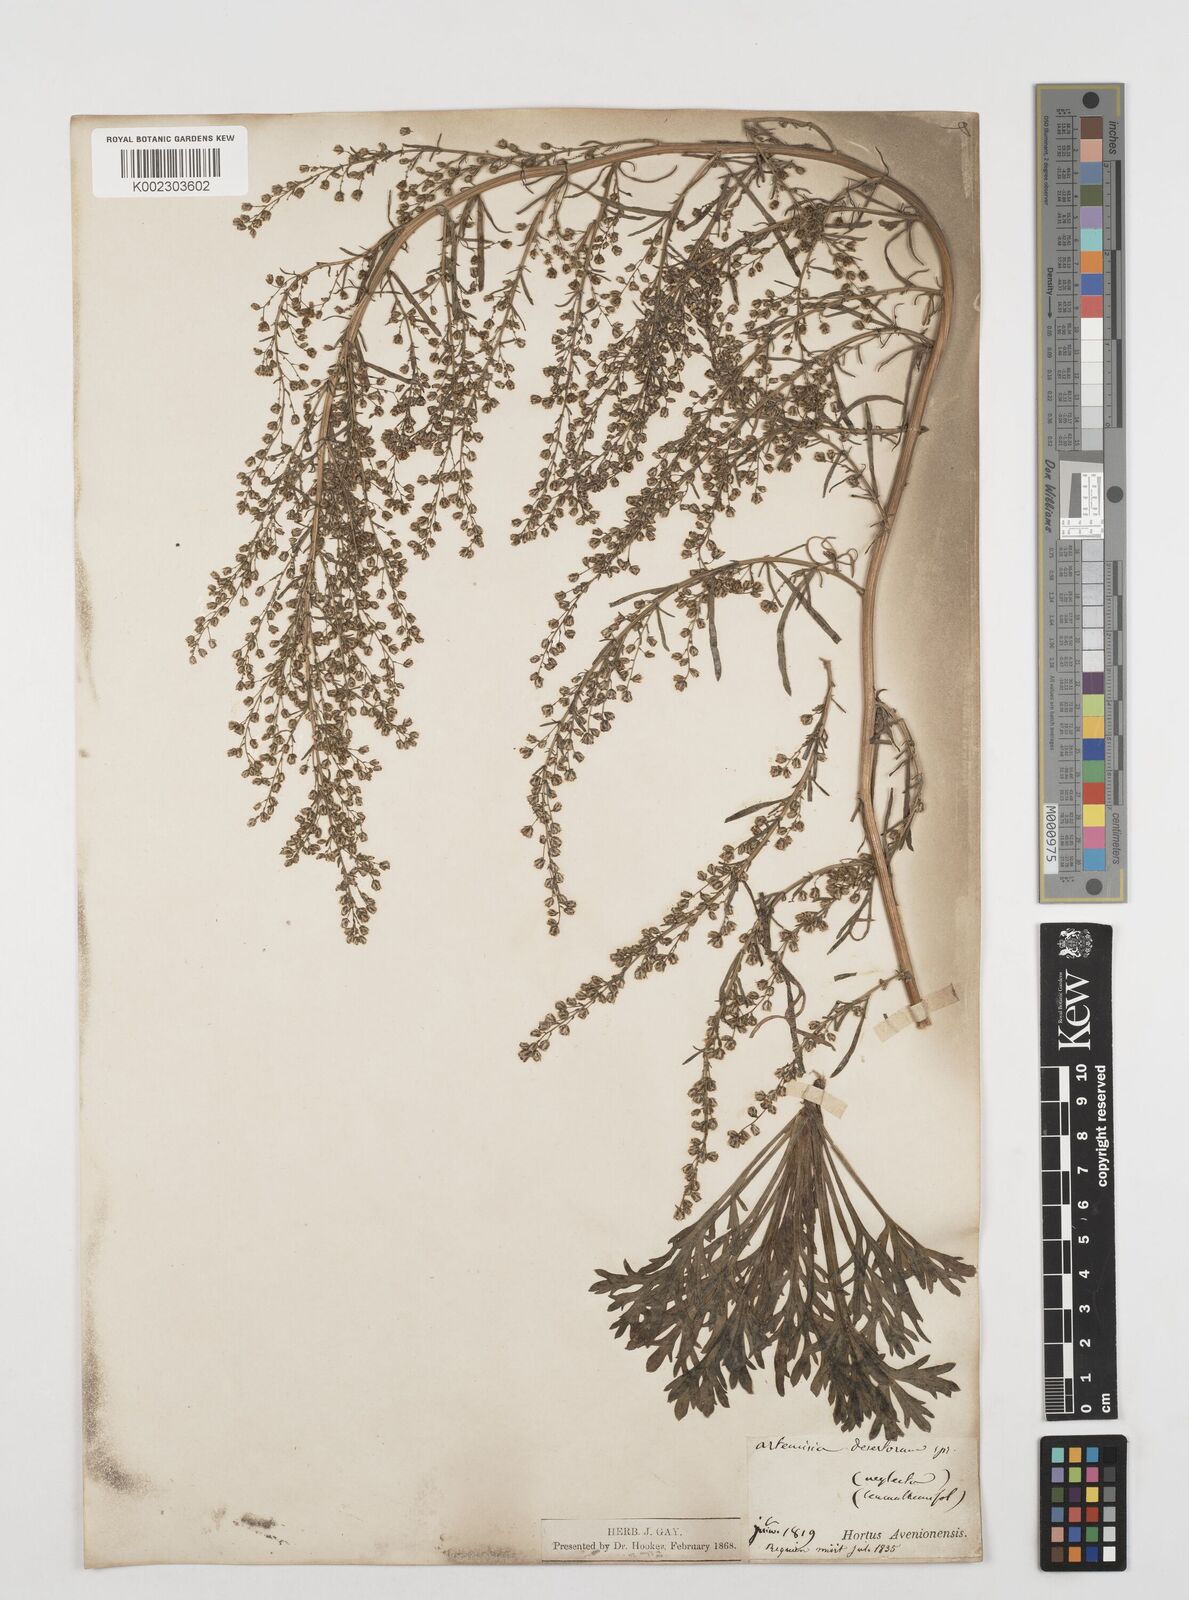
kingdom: Plantae
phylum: Tracheophyta
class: Magnoliopsida
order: Asterales
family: Asteraceae
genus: Artemisia
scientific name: Artemisia desertorum
